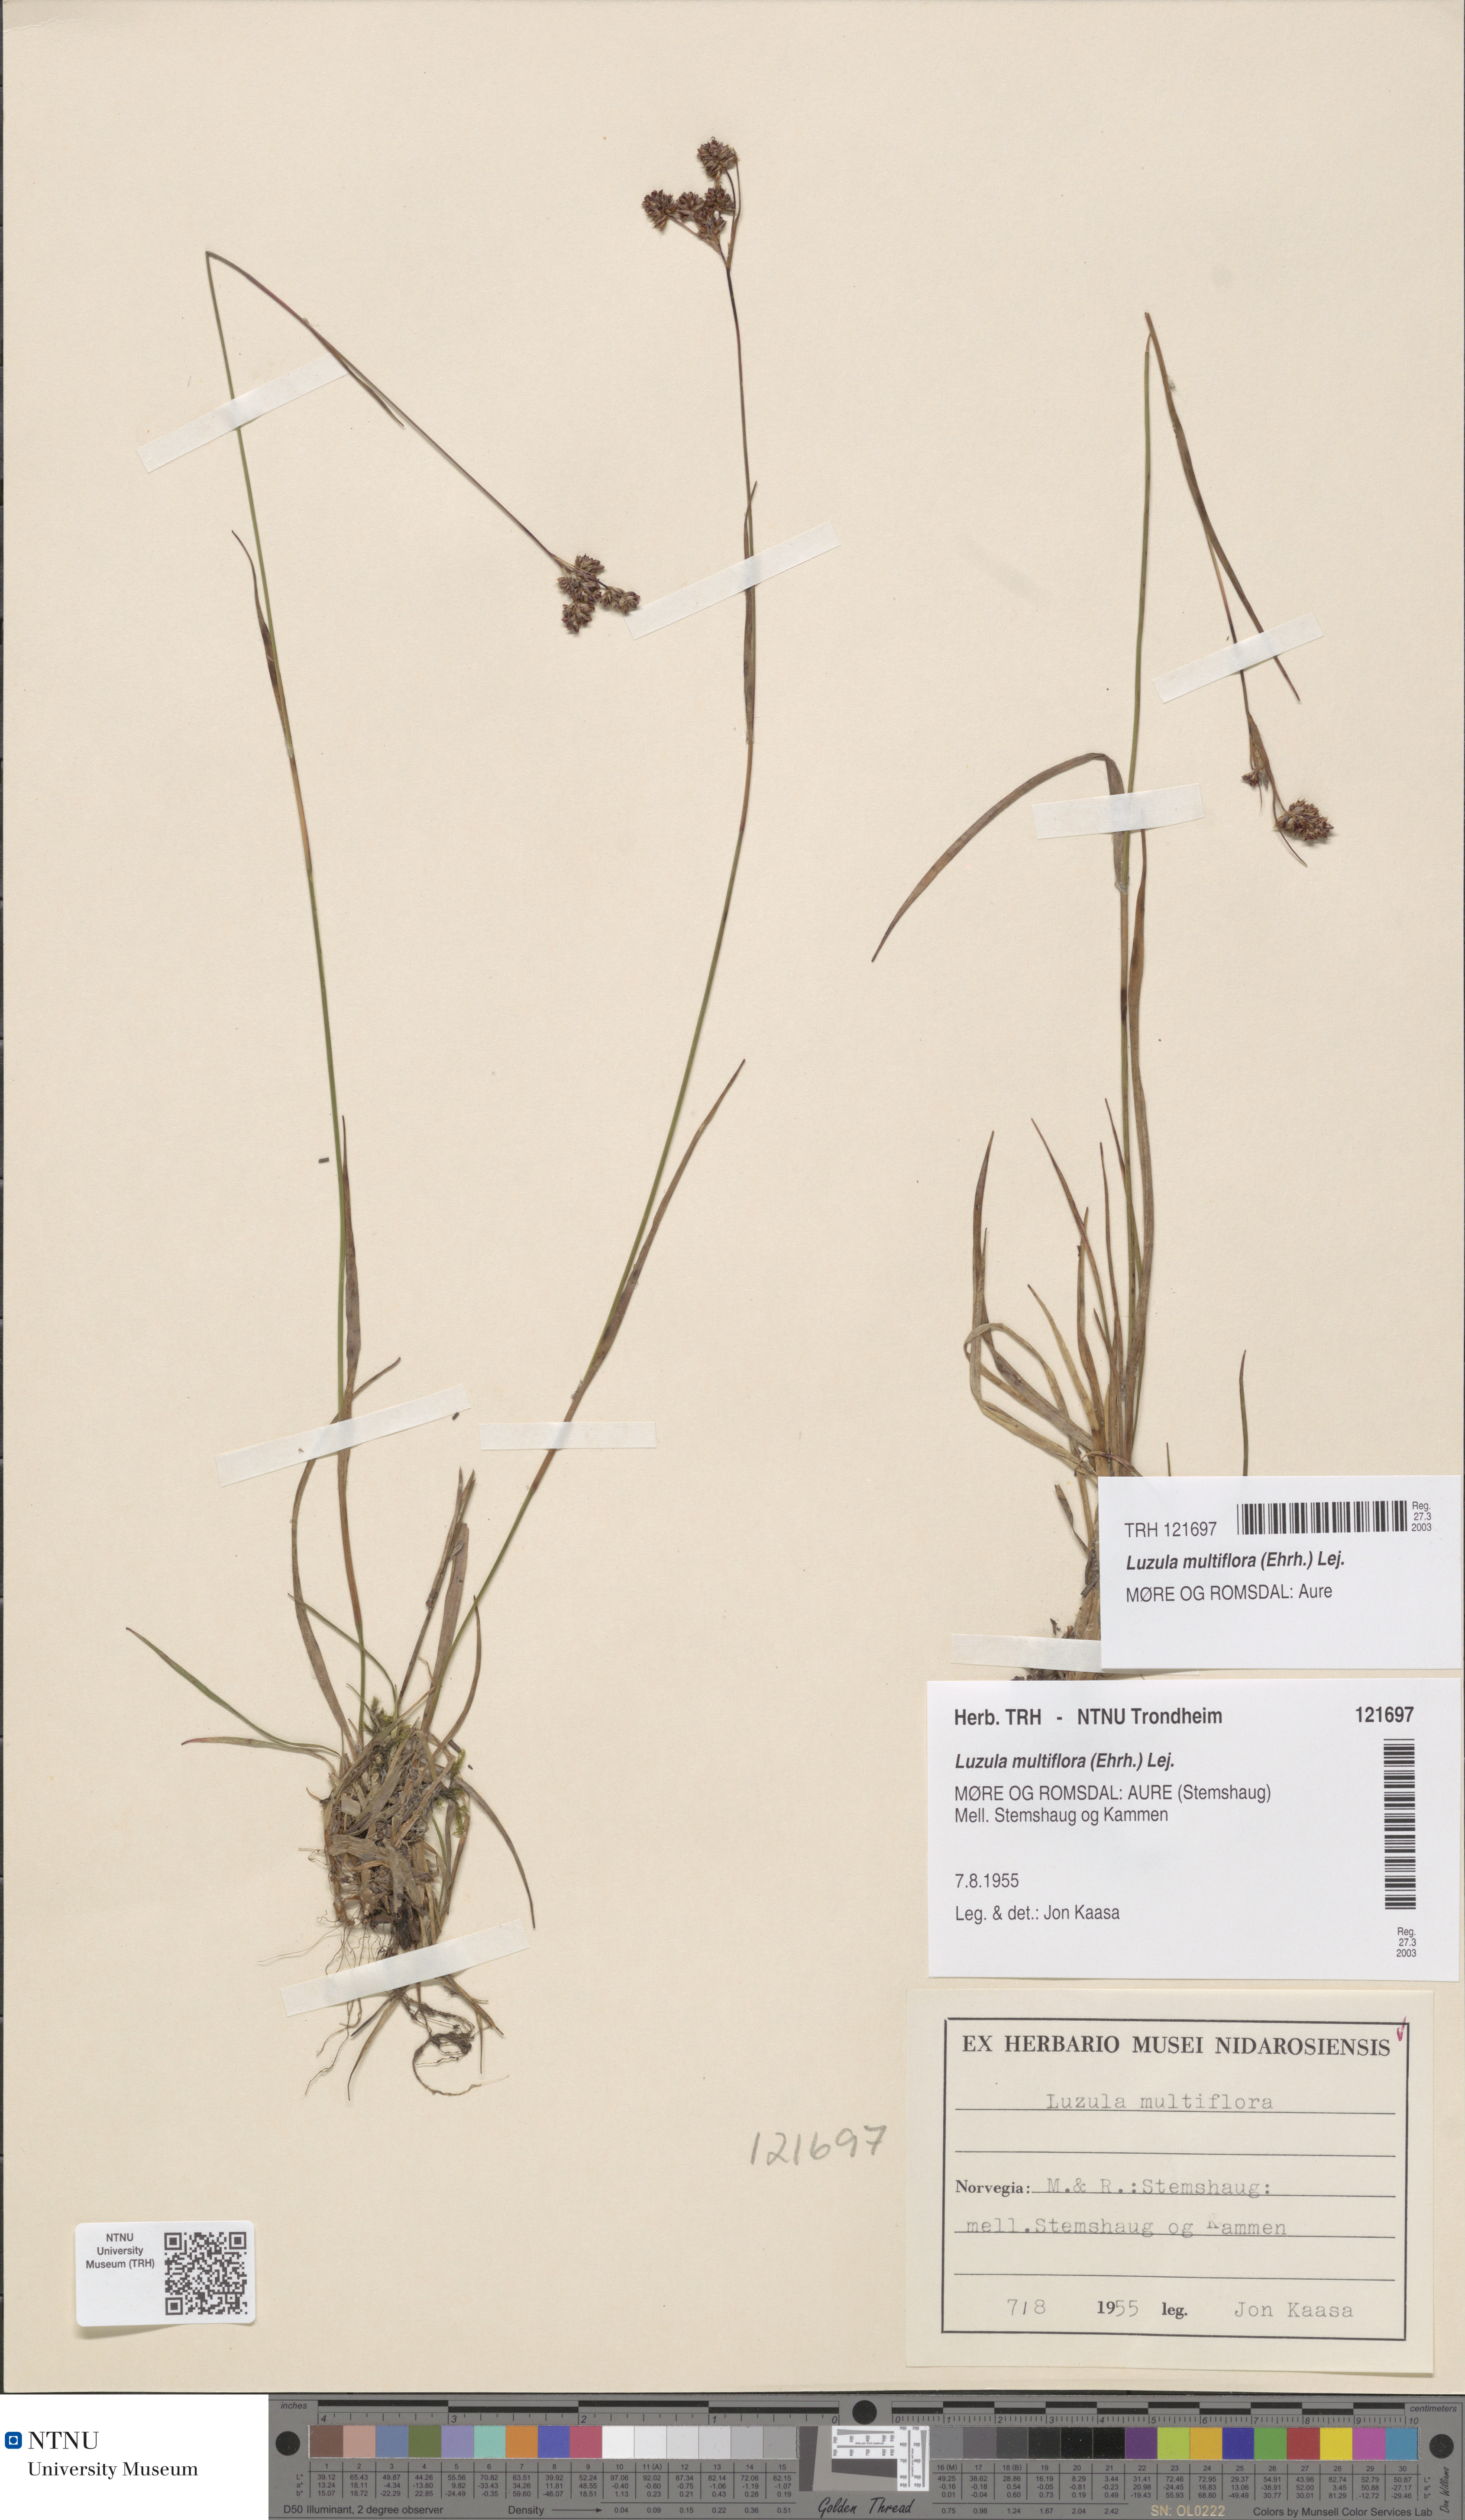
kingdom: Plantae
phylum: Tracheophyta
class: Liliopsida
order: Poales
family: Juncaceae
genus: Luzula
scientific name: Luzula multiflora
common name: Heath wood-rush
